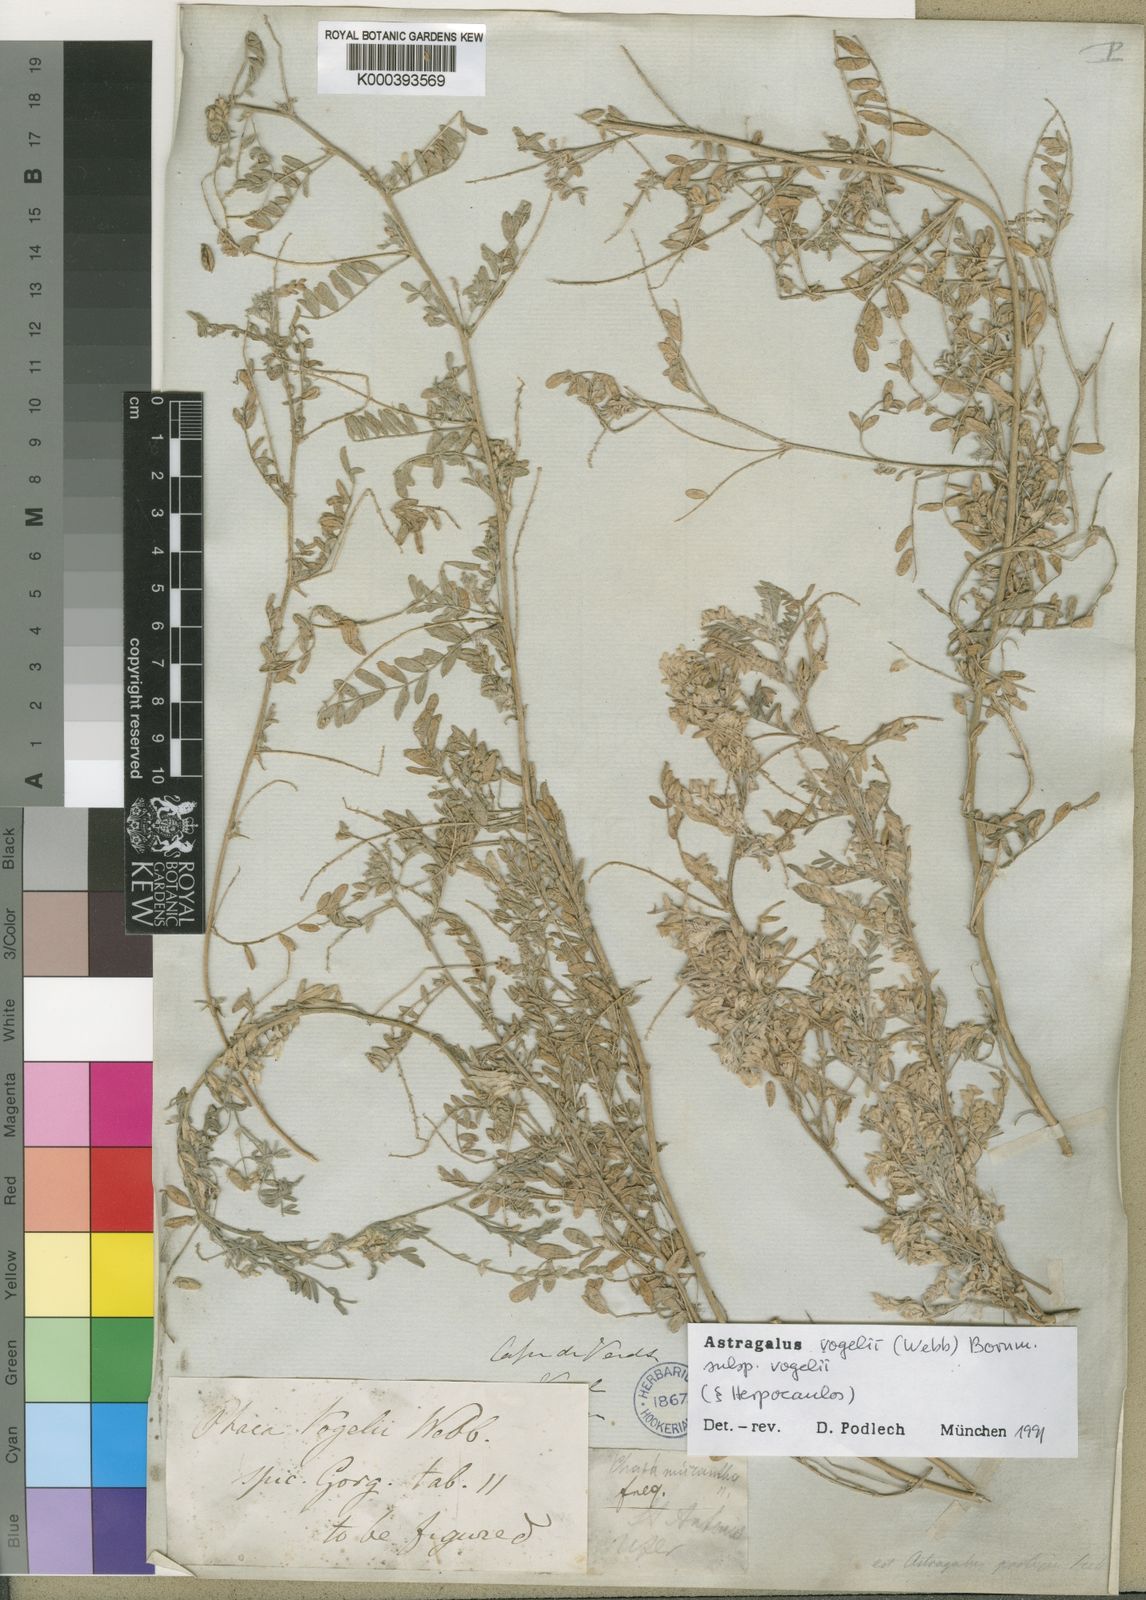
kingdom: Plantae
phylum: Tracheophyta
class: Magnoliopsida
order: Fabales
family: Fabaceae
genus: Astragalus
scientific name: Astragalus vogelii
